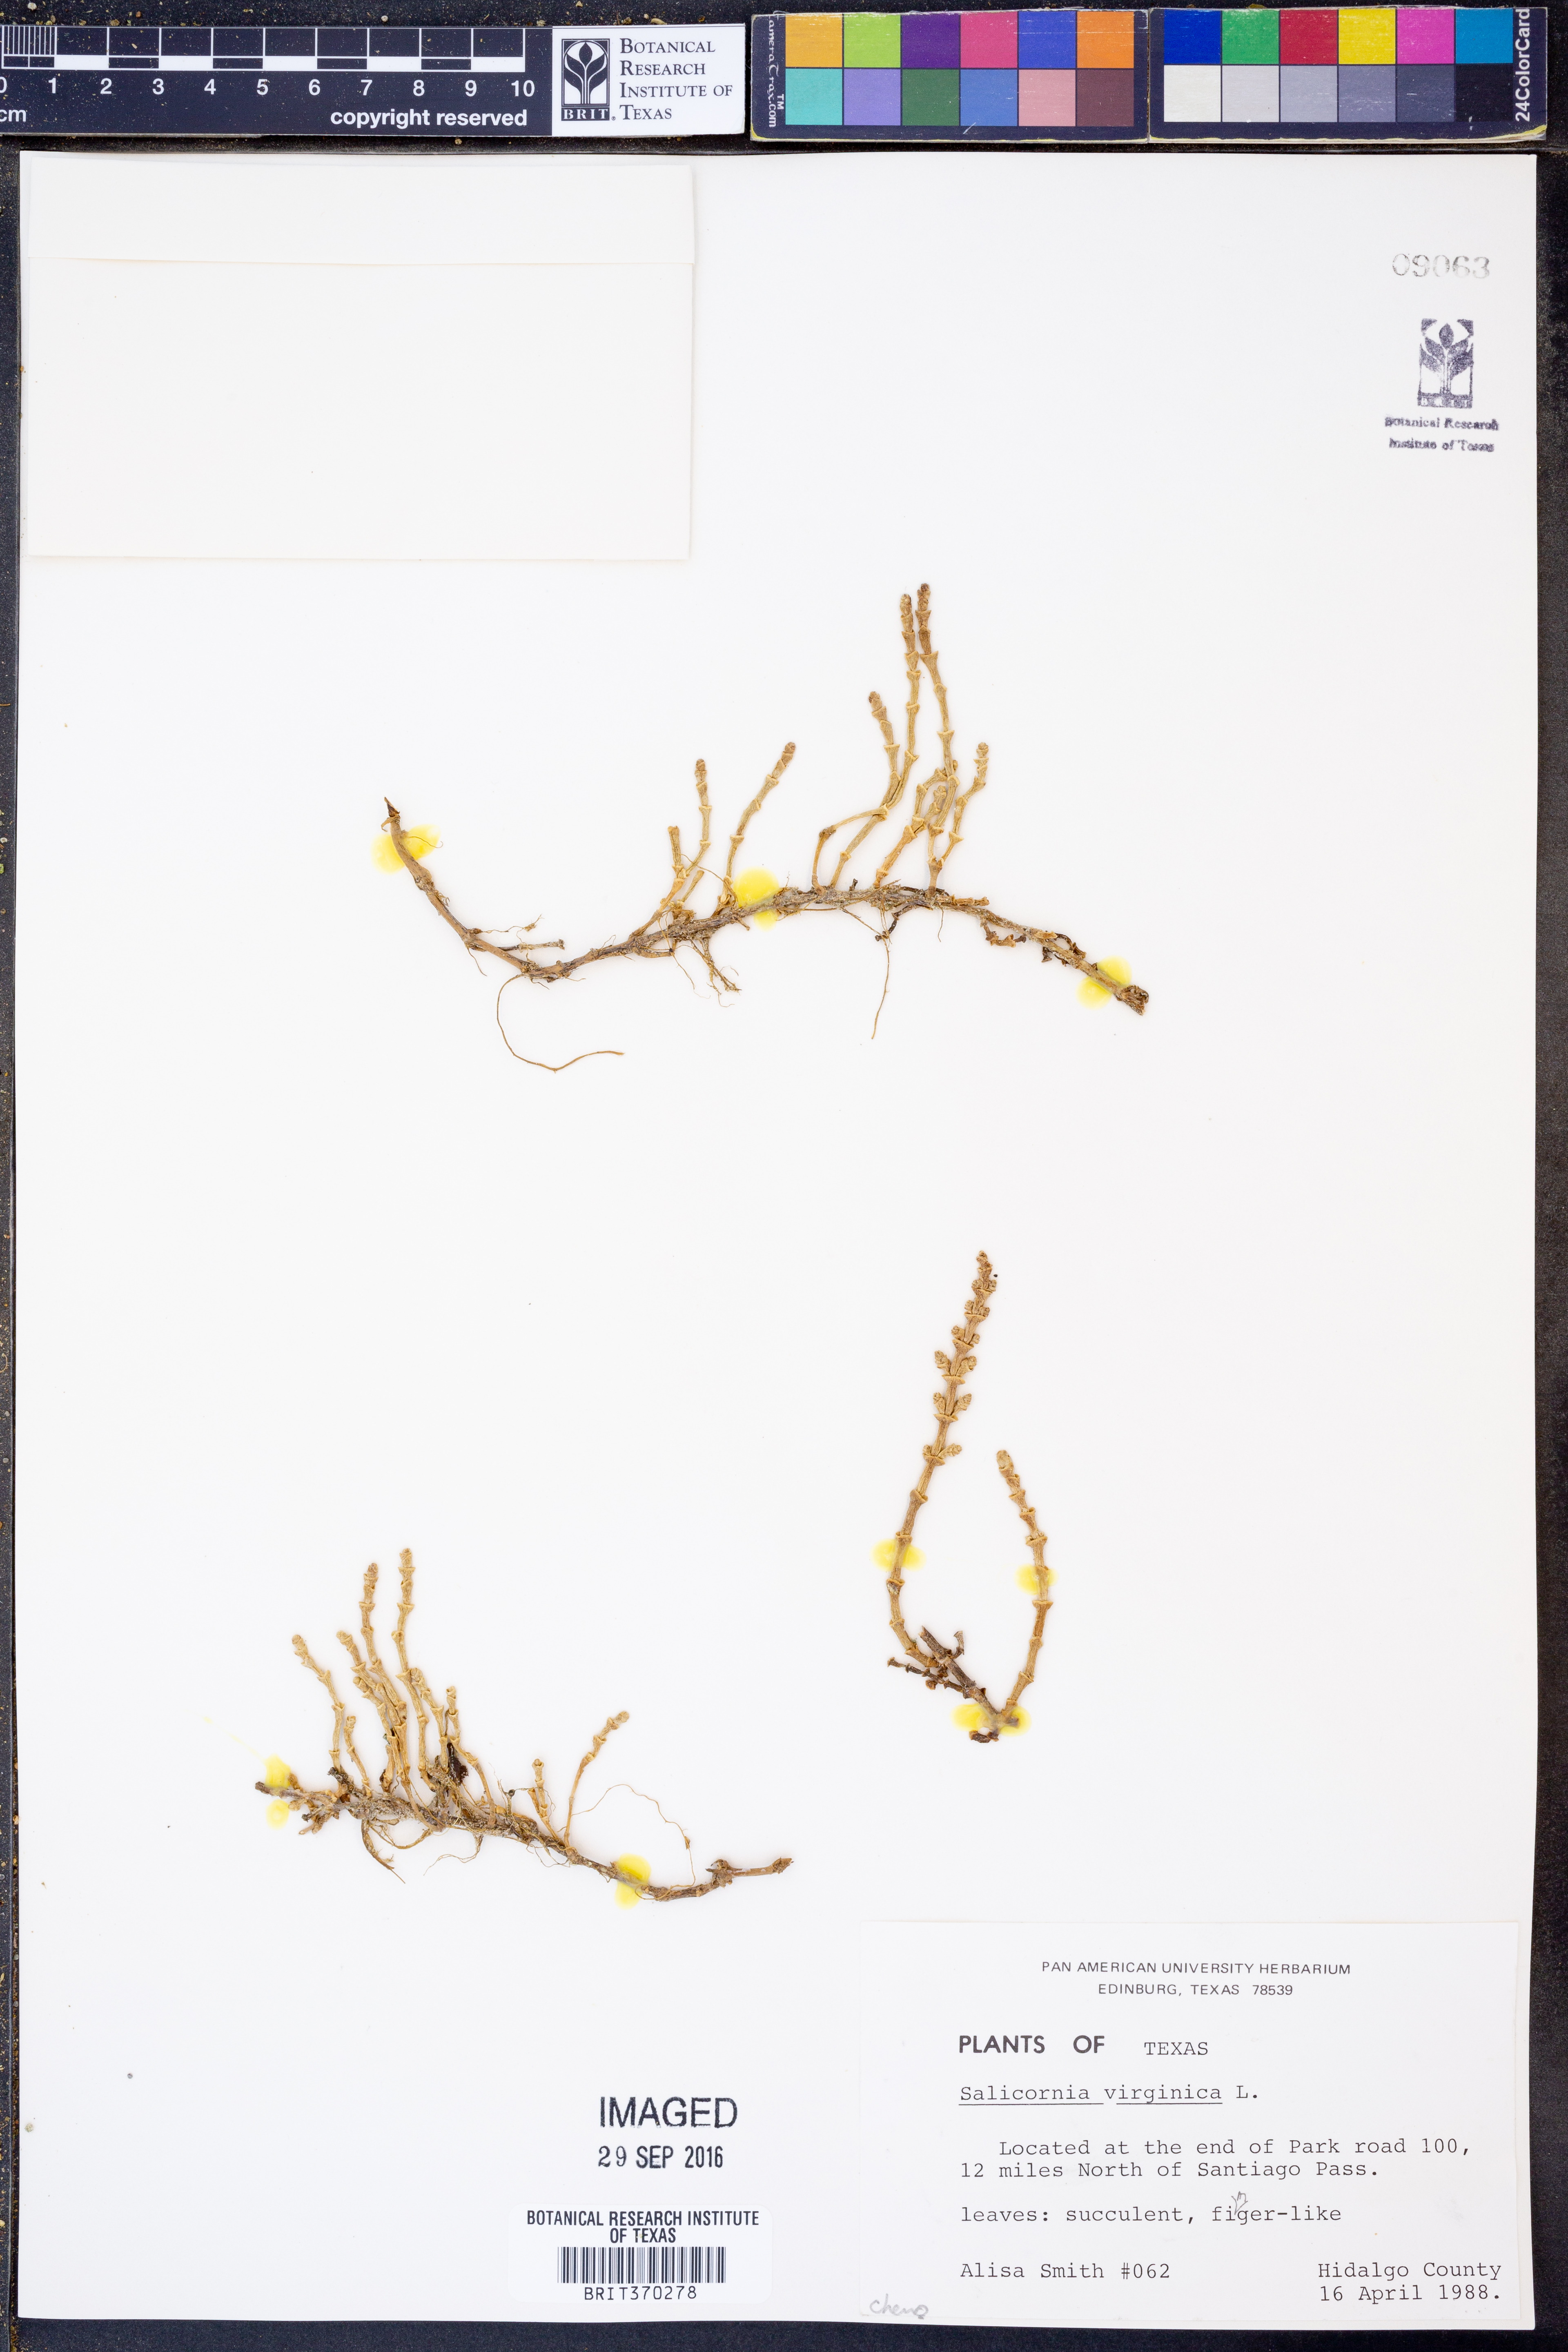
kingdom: Plantae
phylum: Tracheophyta
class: Magnoliopsida
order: Caryophyllales
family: Amaranthaceae
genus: Salicornia
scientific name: Salicornia virginica
